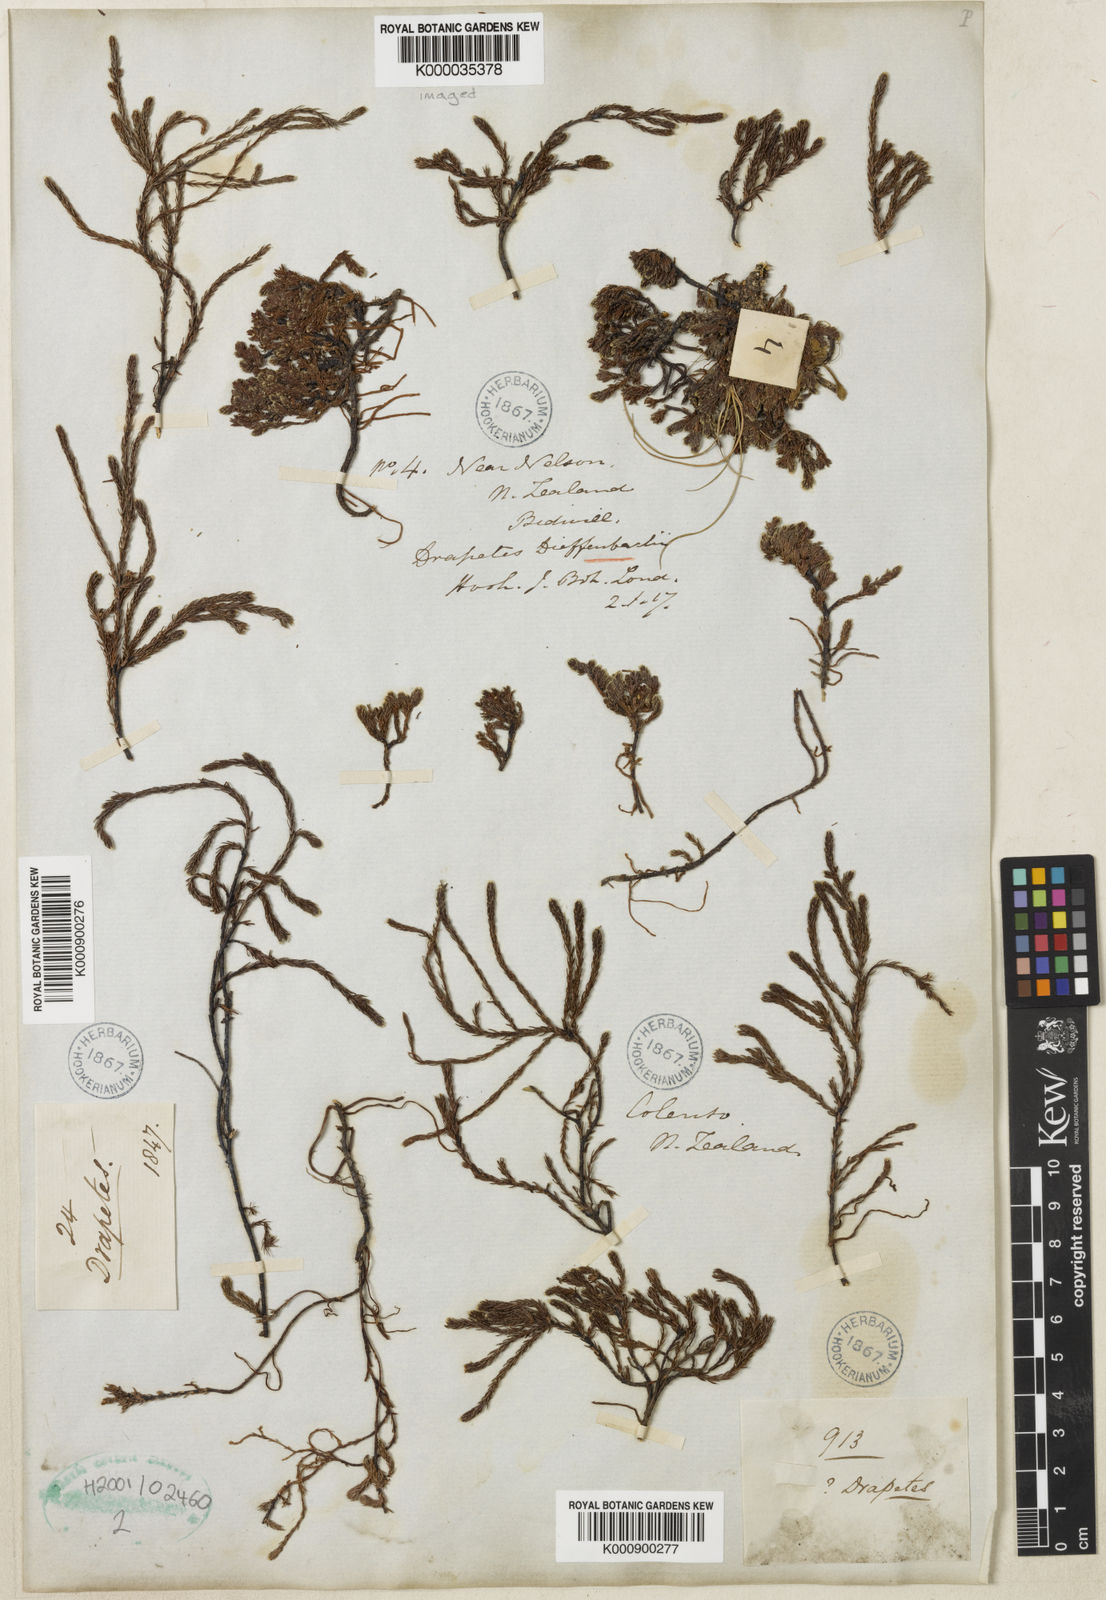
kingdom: Plantae
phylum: Tracheophyta
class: Magnoliopsida
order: Malvales
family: Thymelaeaceae
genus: Kelleria
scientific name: Kelleria dieffenbachii
